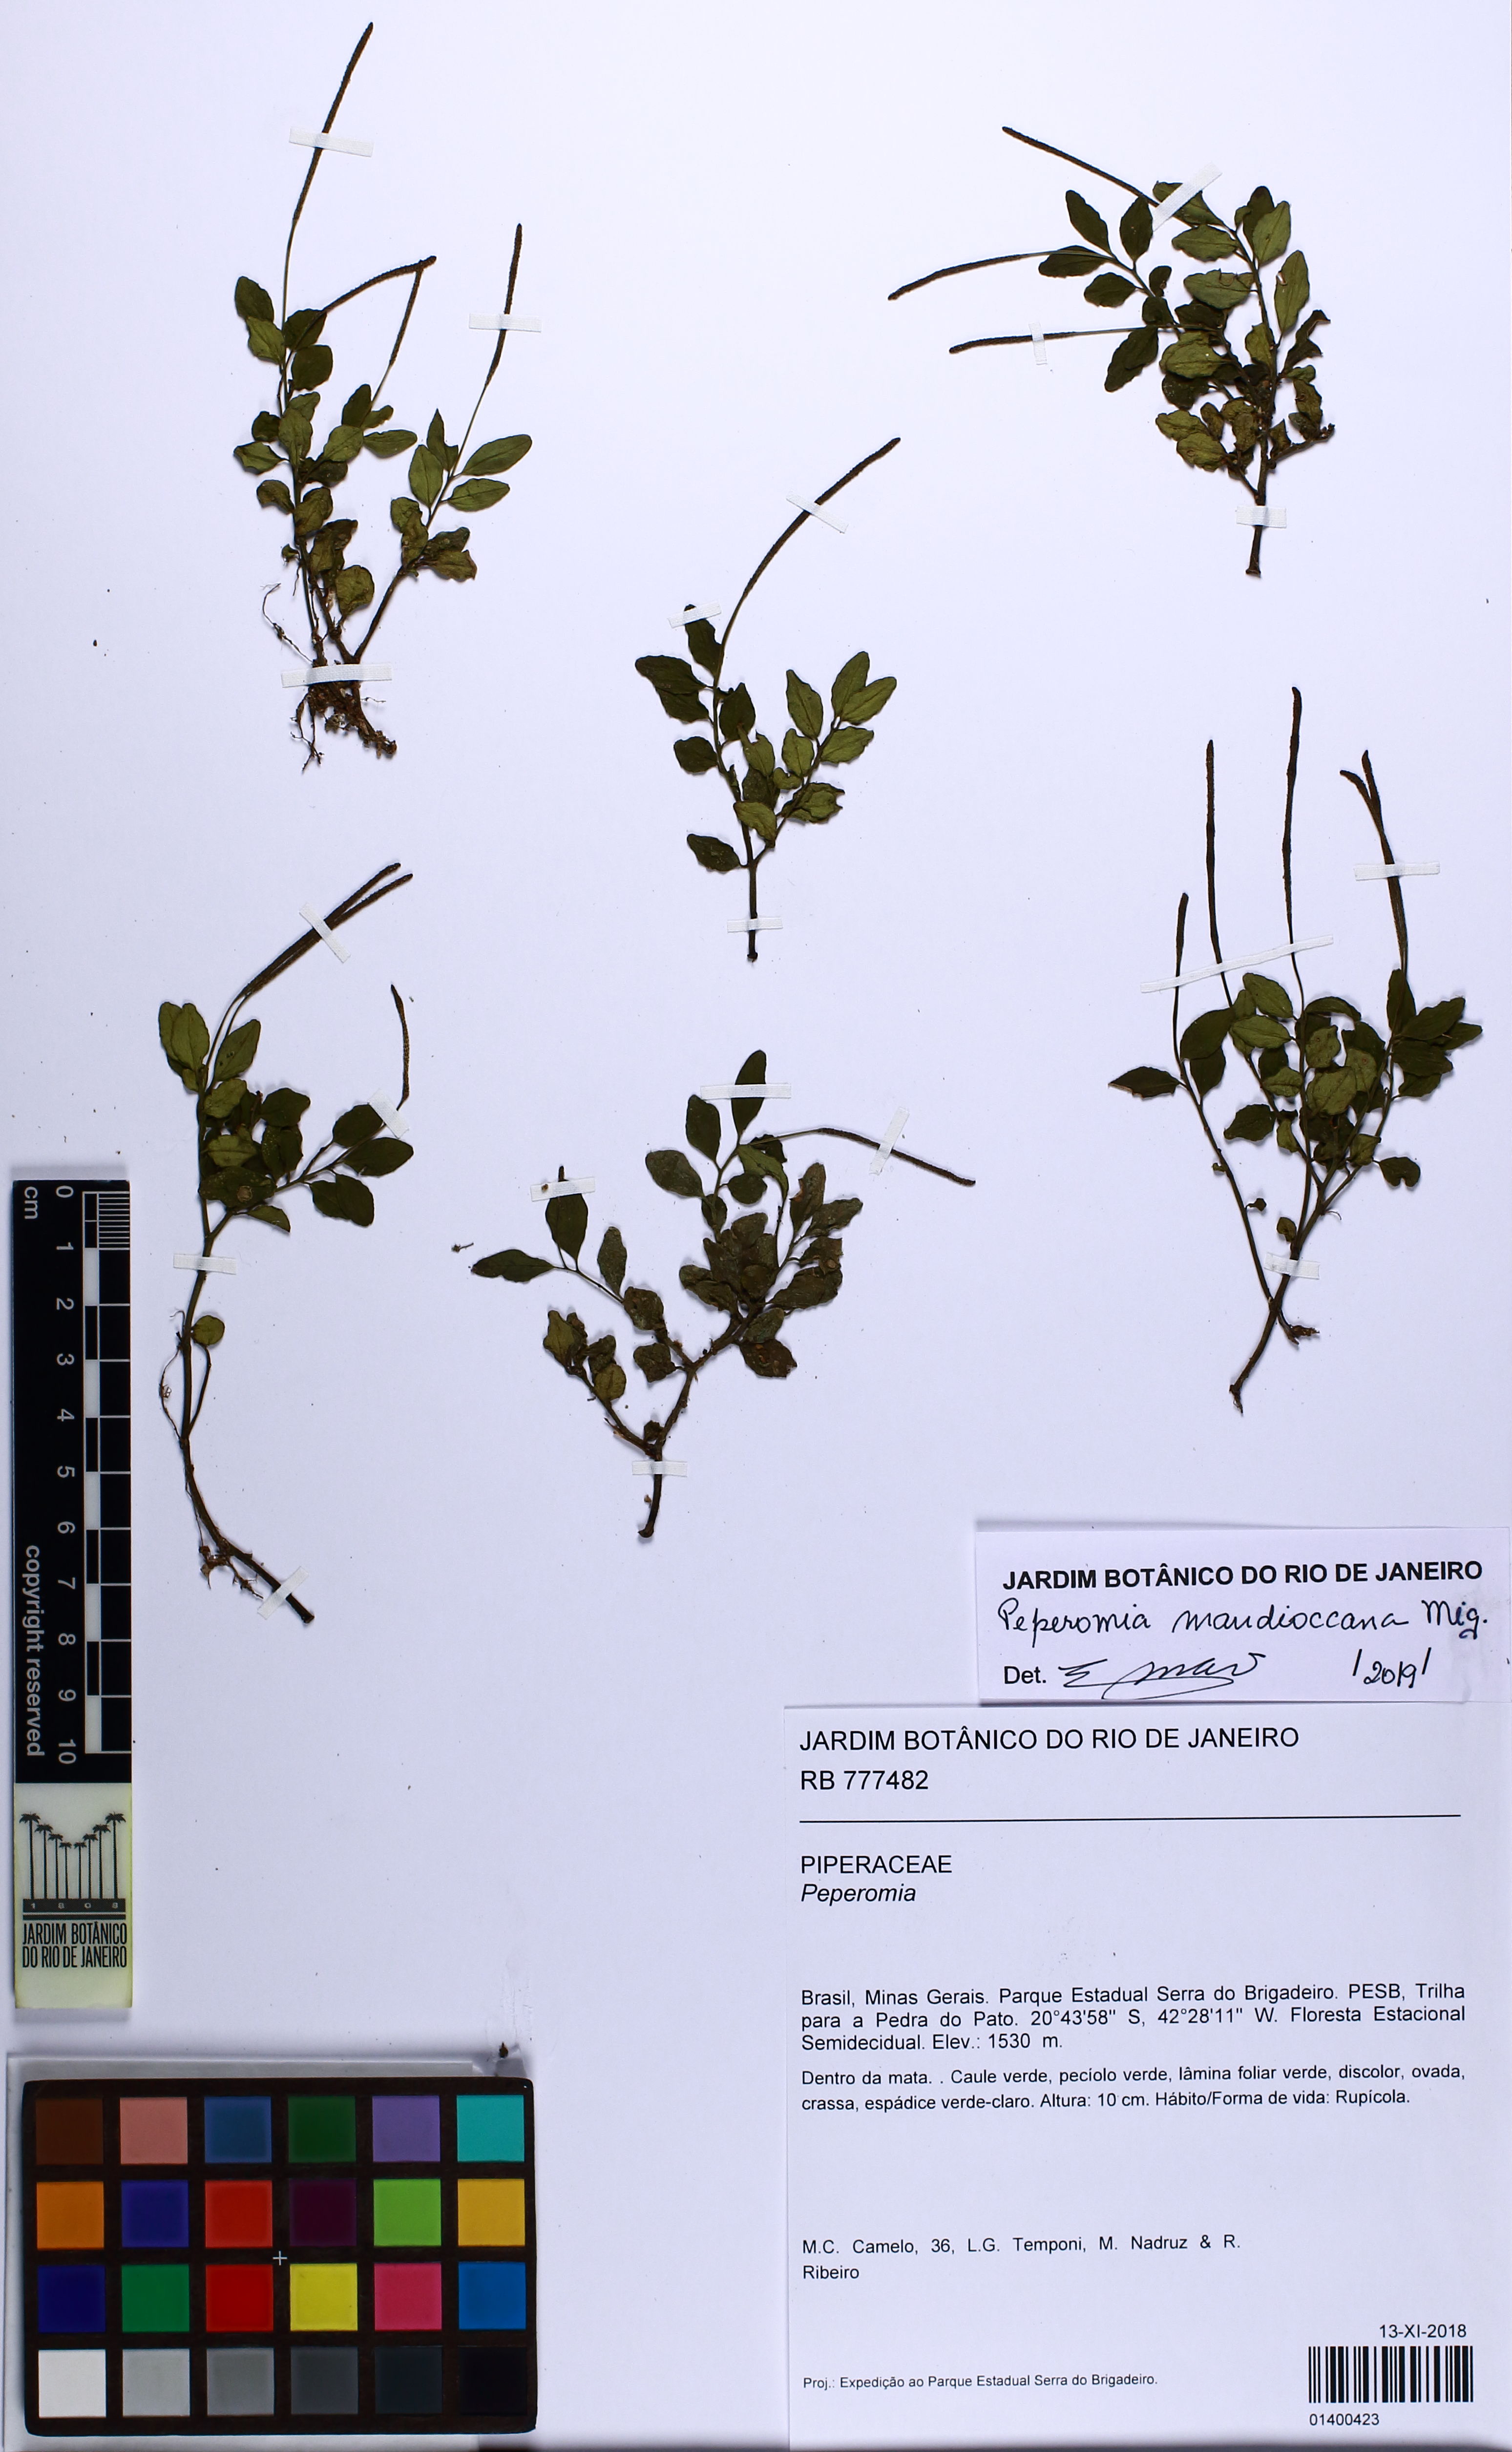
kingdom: Plantae
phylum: Tracheophyta
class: Magnoliopsida
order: Piperales
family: Piperaceae
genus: Peperomia
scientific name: Peperomia mandioccana
